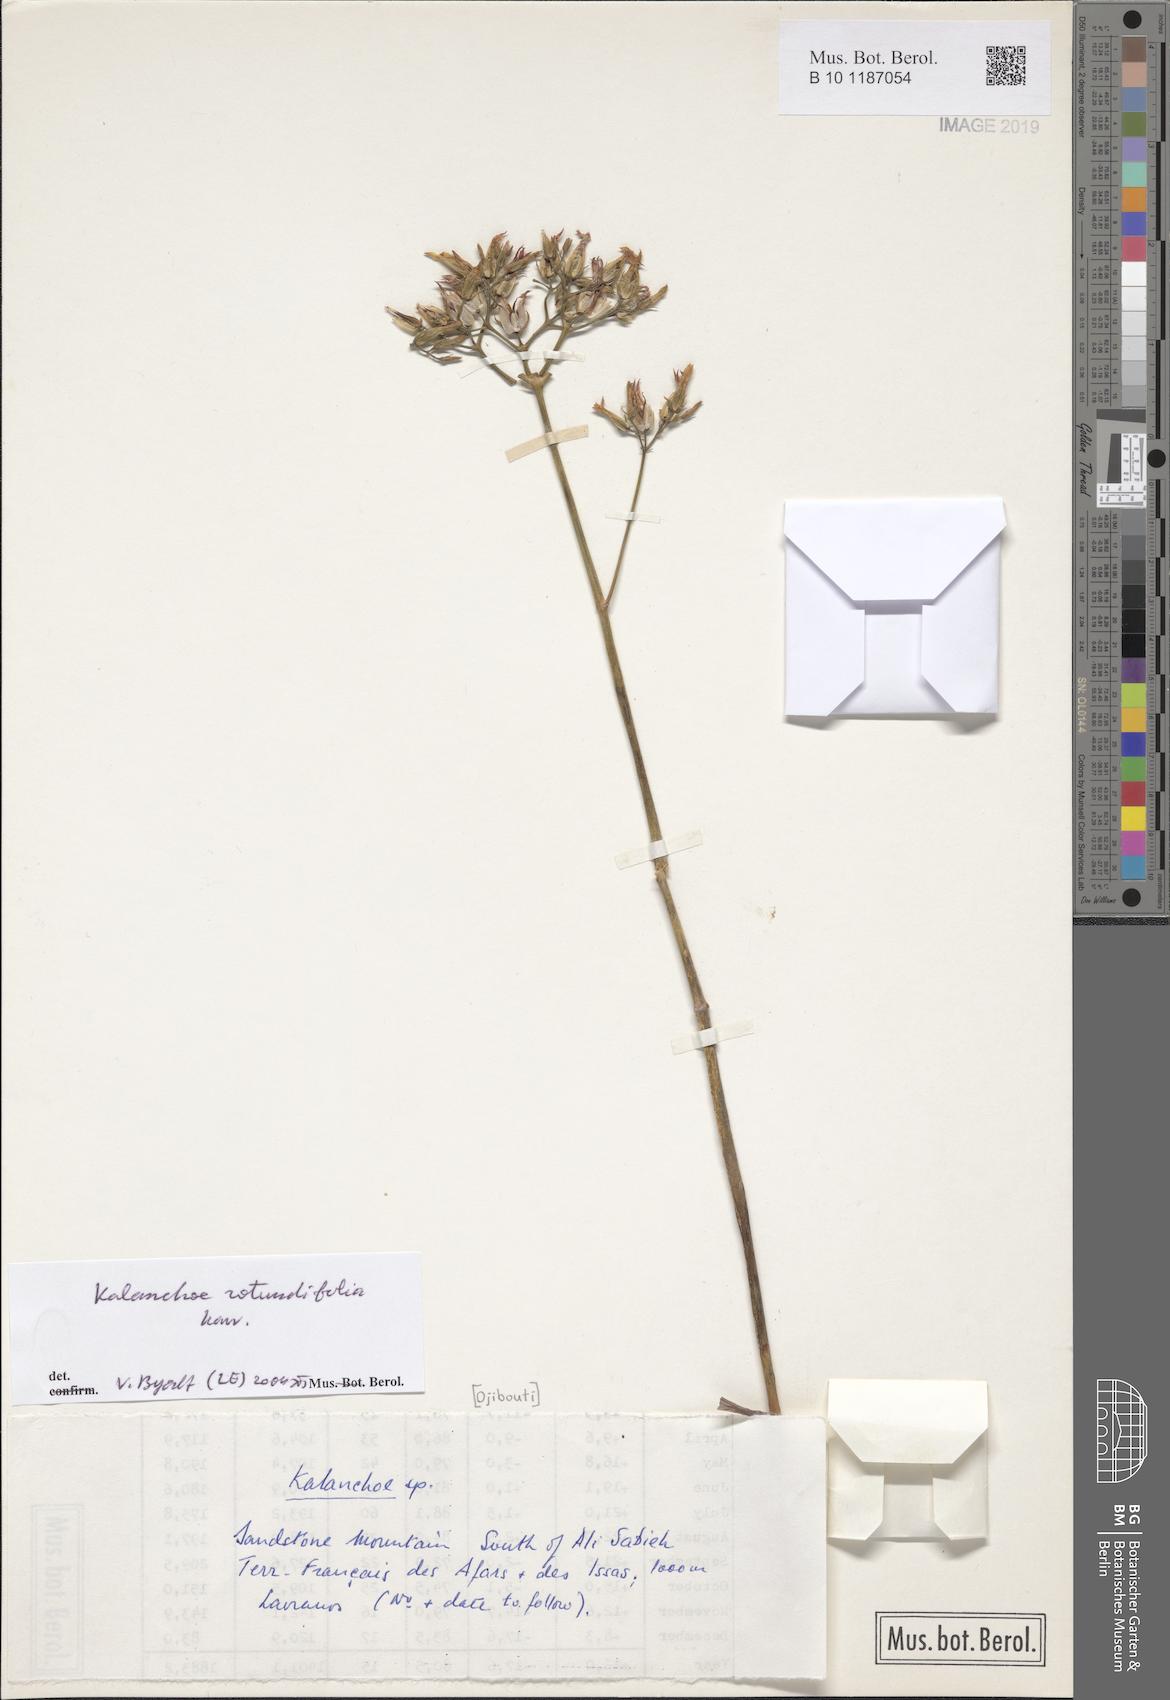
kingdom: Plantae
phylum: Tracheophyta
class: Magnoliopsida
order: Saxifragales
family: Crassulaceae
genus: Kalanchoe
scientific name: Kalanchoe rotundifolia
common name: Common kalanchoe
